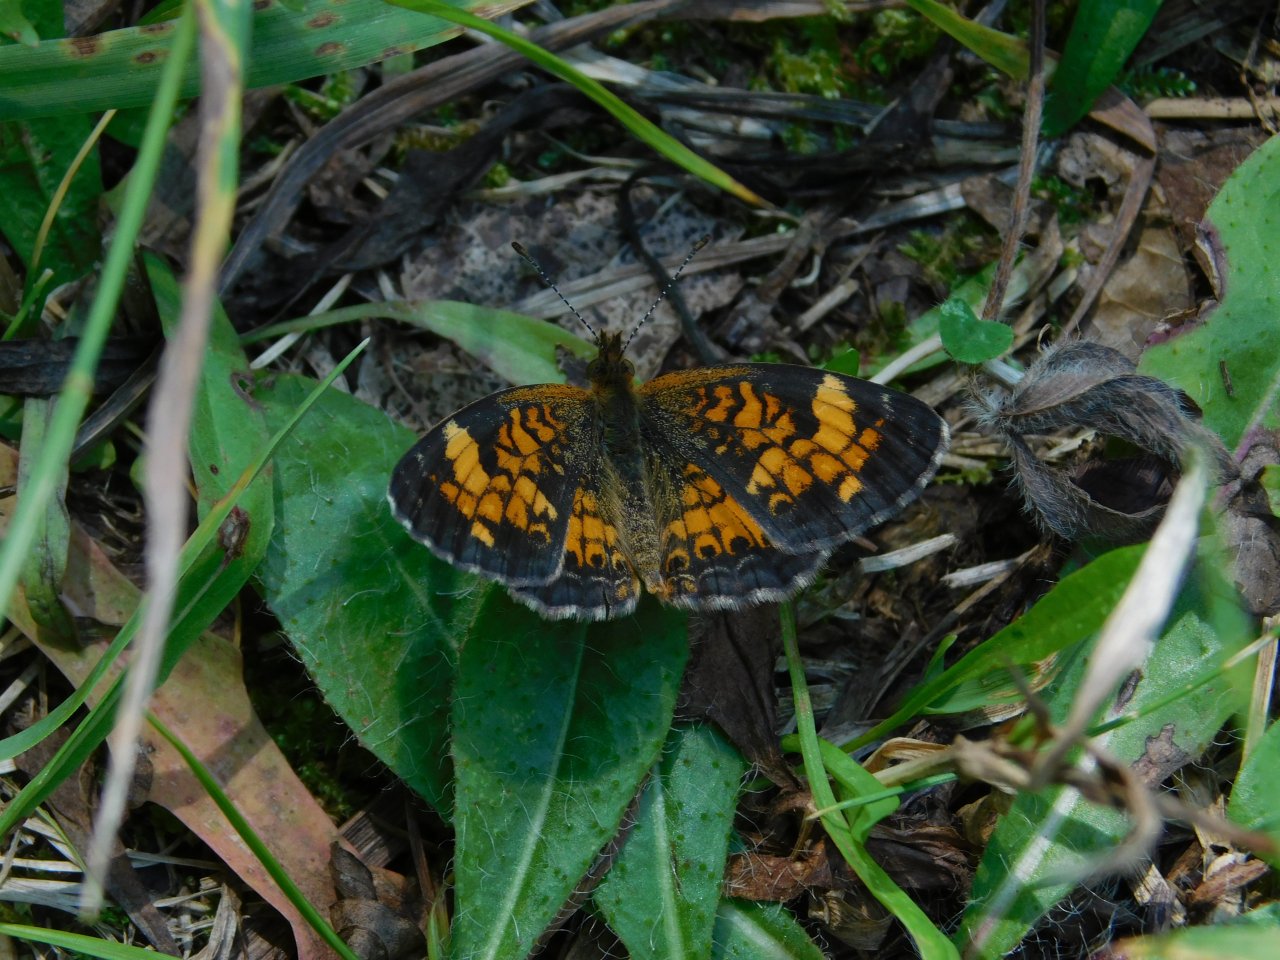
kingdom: Animalia
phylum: Arthropoda
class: Insecta
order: Lepidoptera
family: Nymphalidae
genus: Phyciodes
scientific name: Phyciodes tharos
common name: Pearl Crescent
